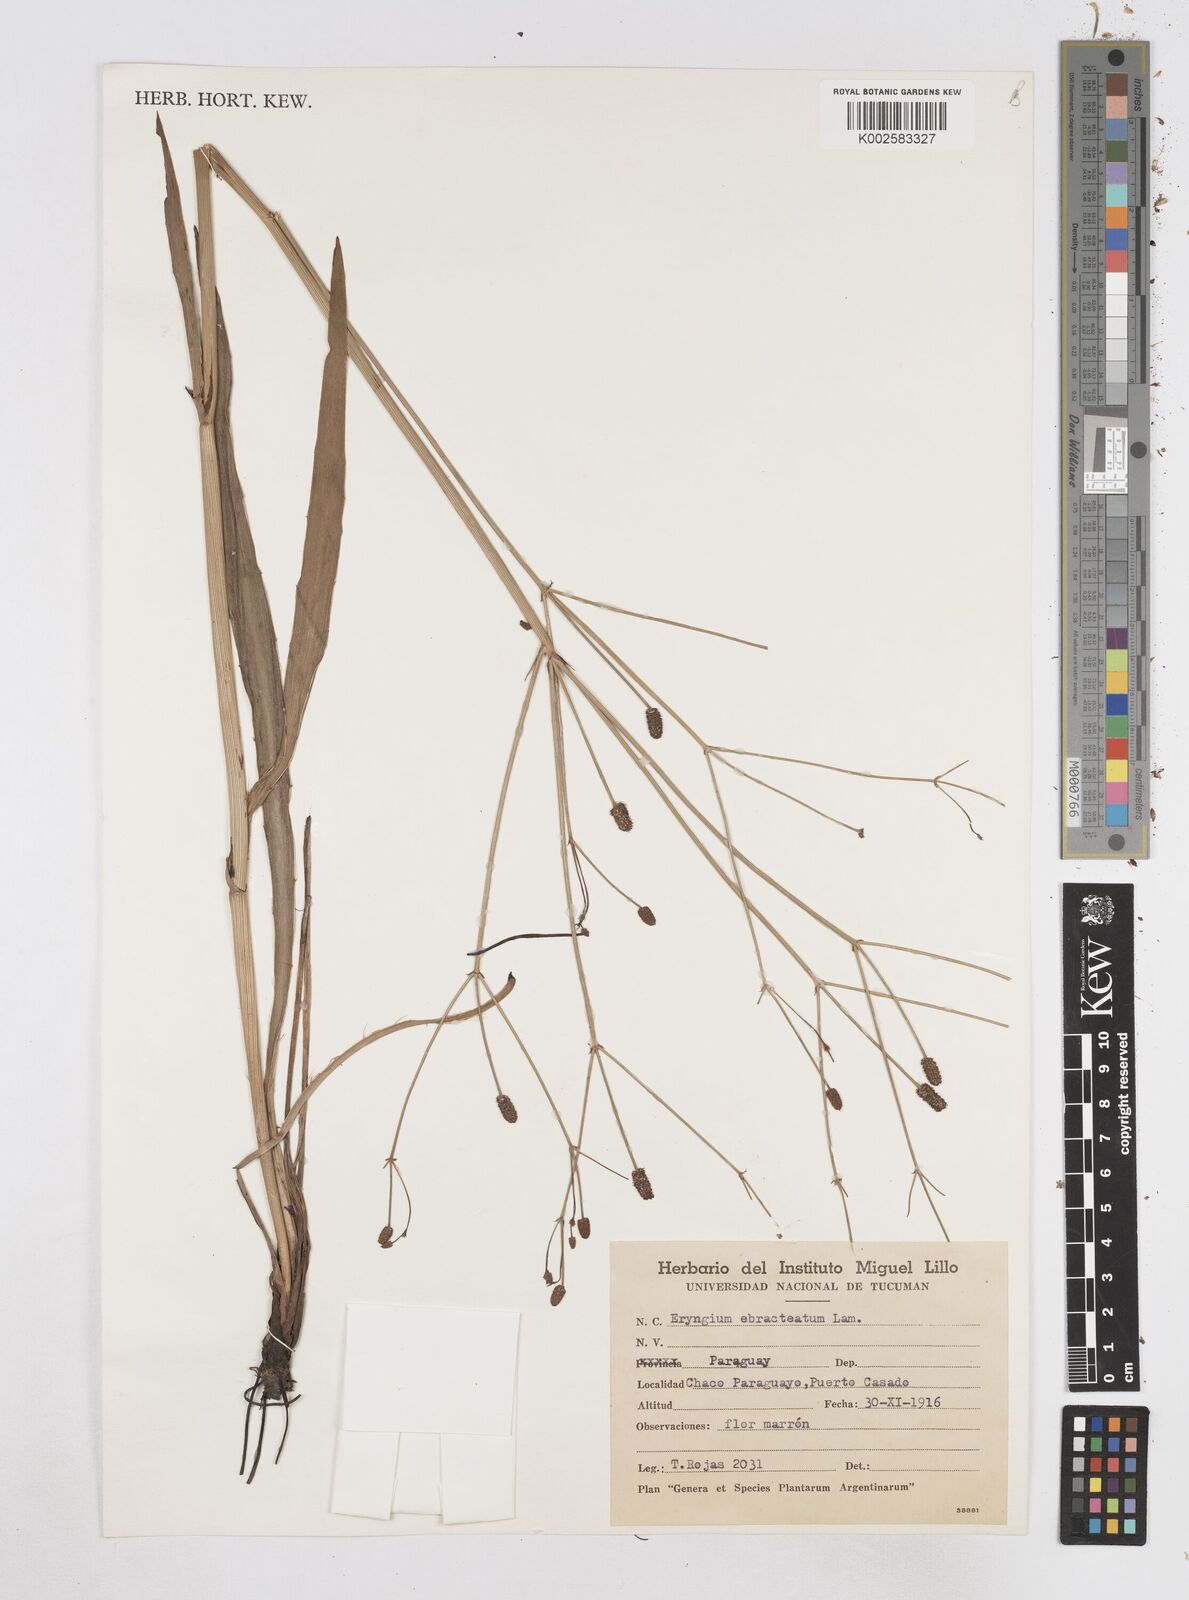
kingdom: Plantae
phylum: Tracheophyta
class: Magnoliopsida
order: Apiales
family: Apiaceae
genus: Eryngium
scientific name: Eryngium ebracteatum
